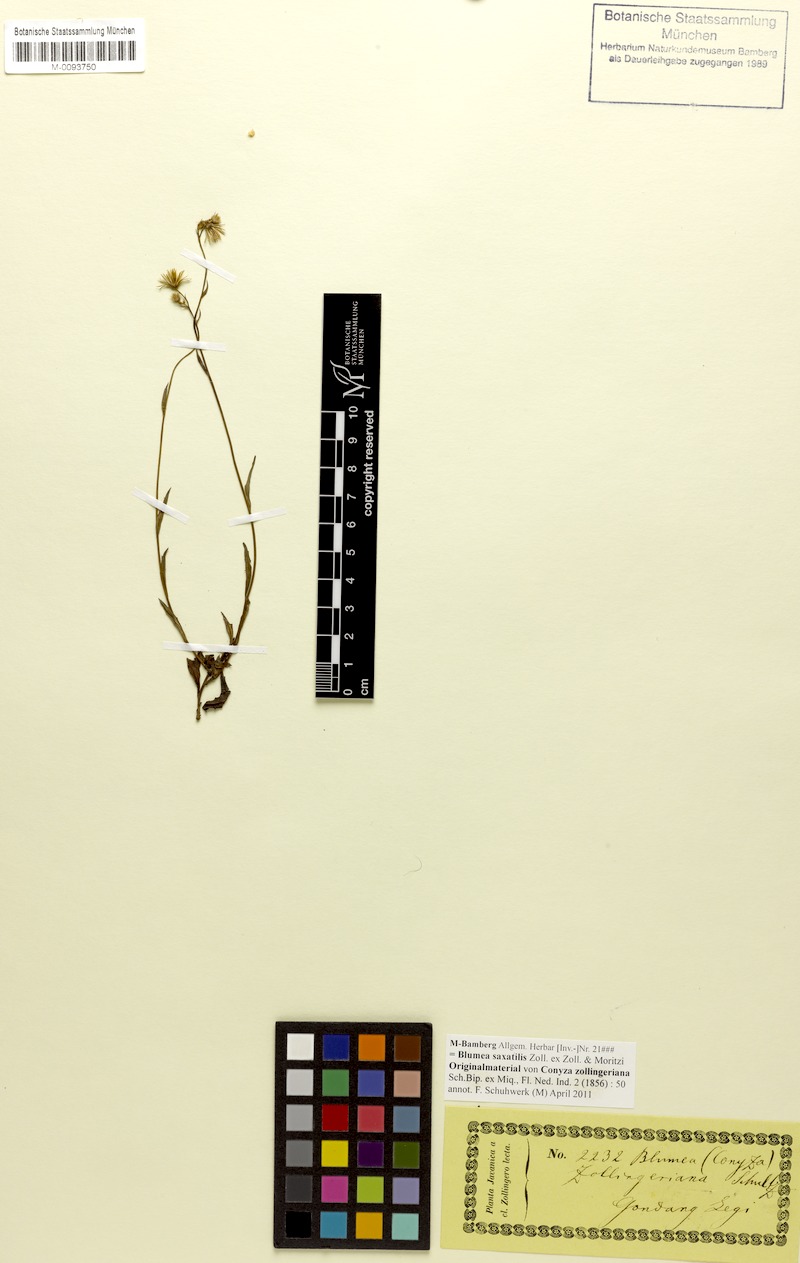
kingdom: Plantae
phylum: Tracheophyta
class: Magnoliopsida
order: Asterales
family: Asteraceae
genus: Blumea
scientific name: Blumea saxatilis
